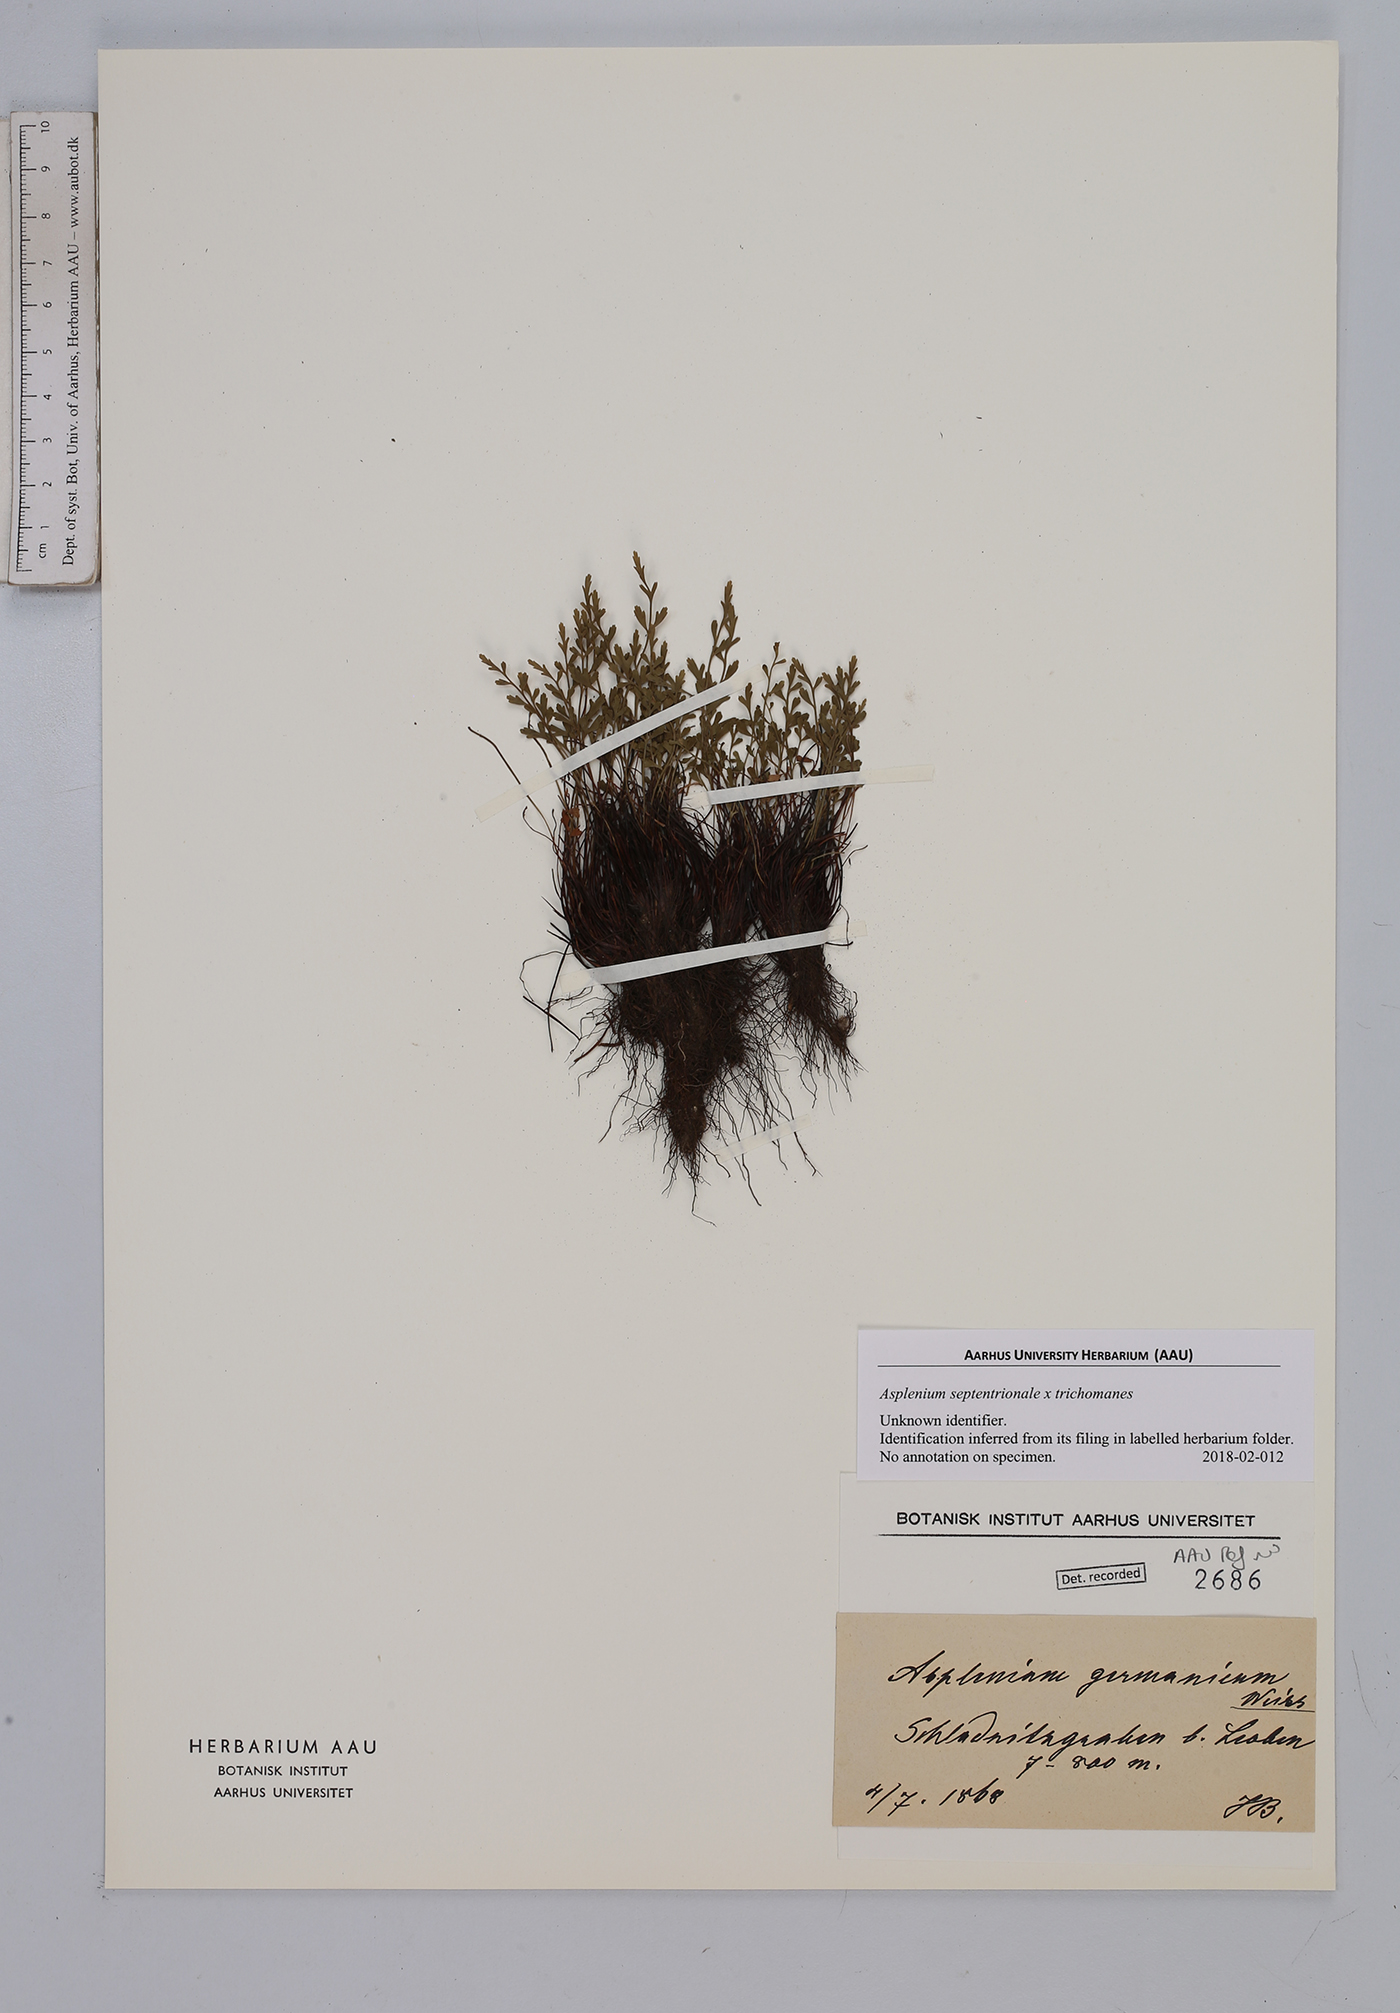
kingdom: Plantae
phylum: Tracheophyta
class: Polypodiopsida
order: Polypodiales
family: Aspleniaceae
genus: Asplenium
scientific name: Asplenium
